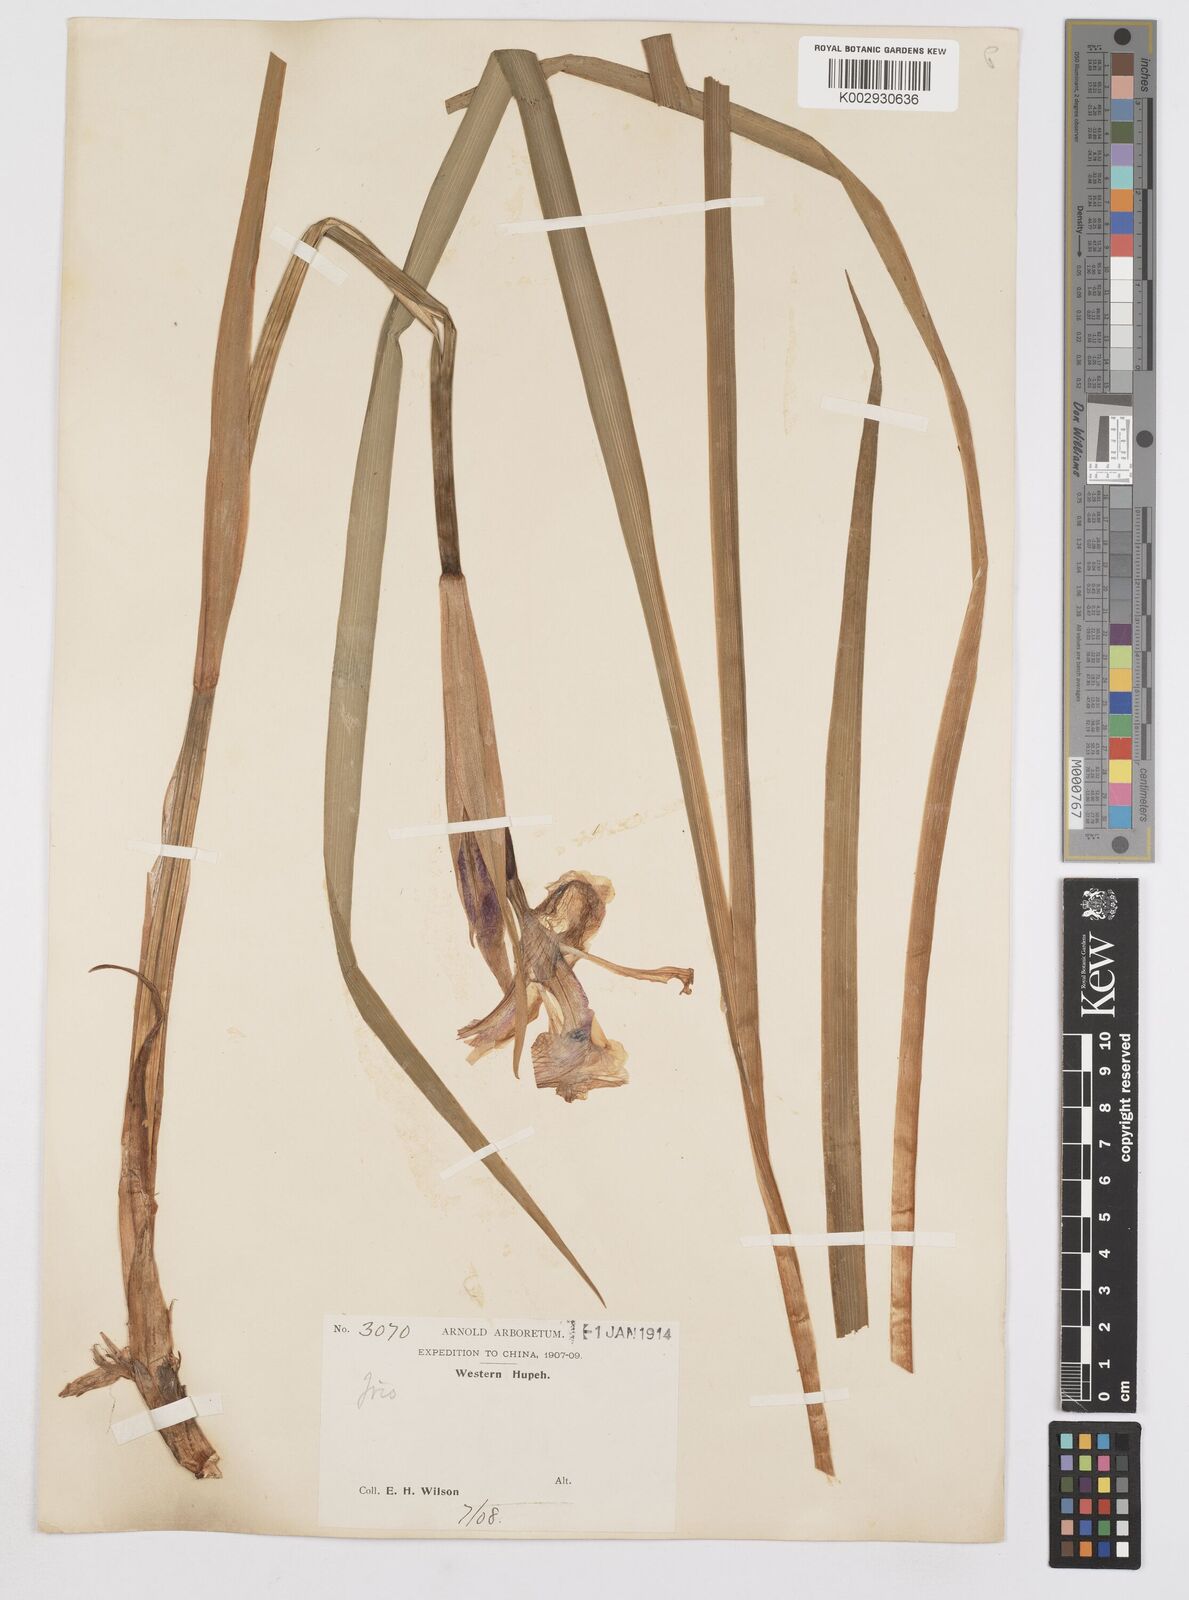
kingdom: Plantae
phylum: Tracheophyta
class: Liliopsida
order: Asparagales
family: Iridaceae
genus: Iris
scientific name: Iris laevigata
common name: Japanese iris
